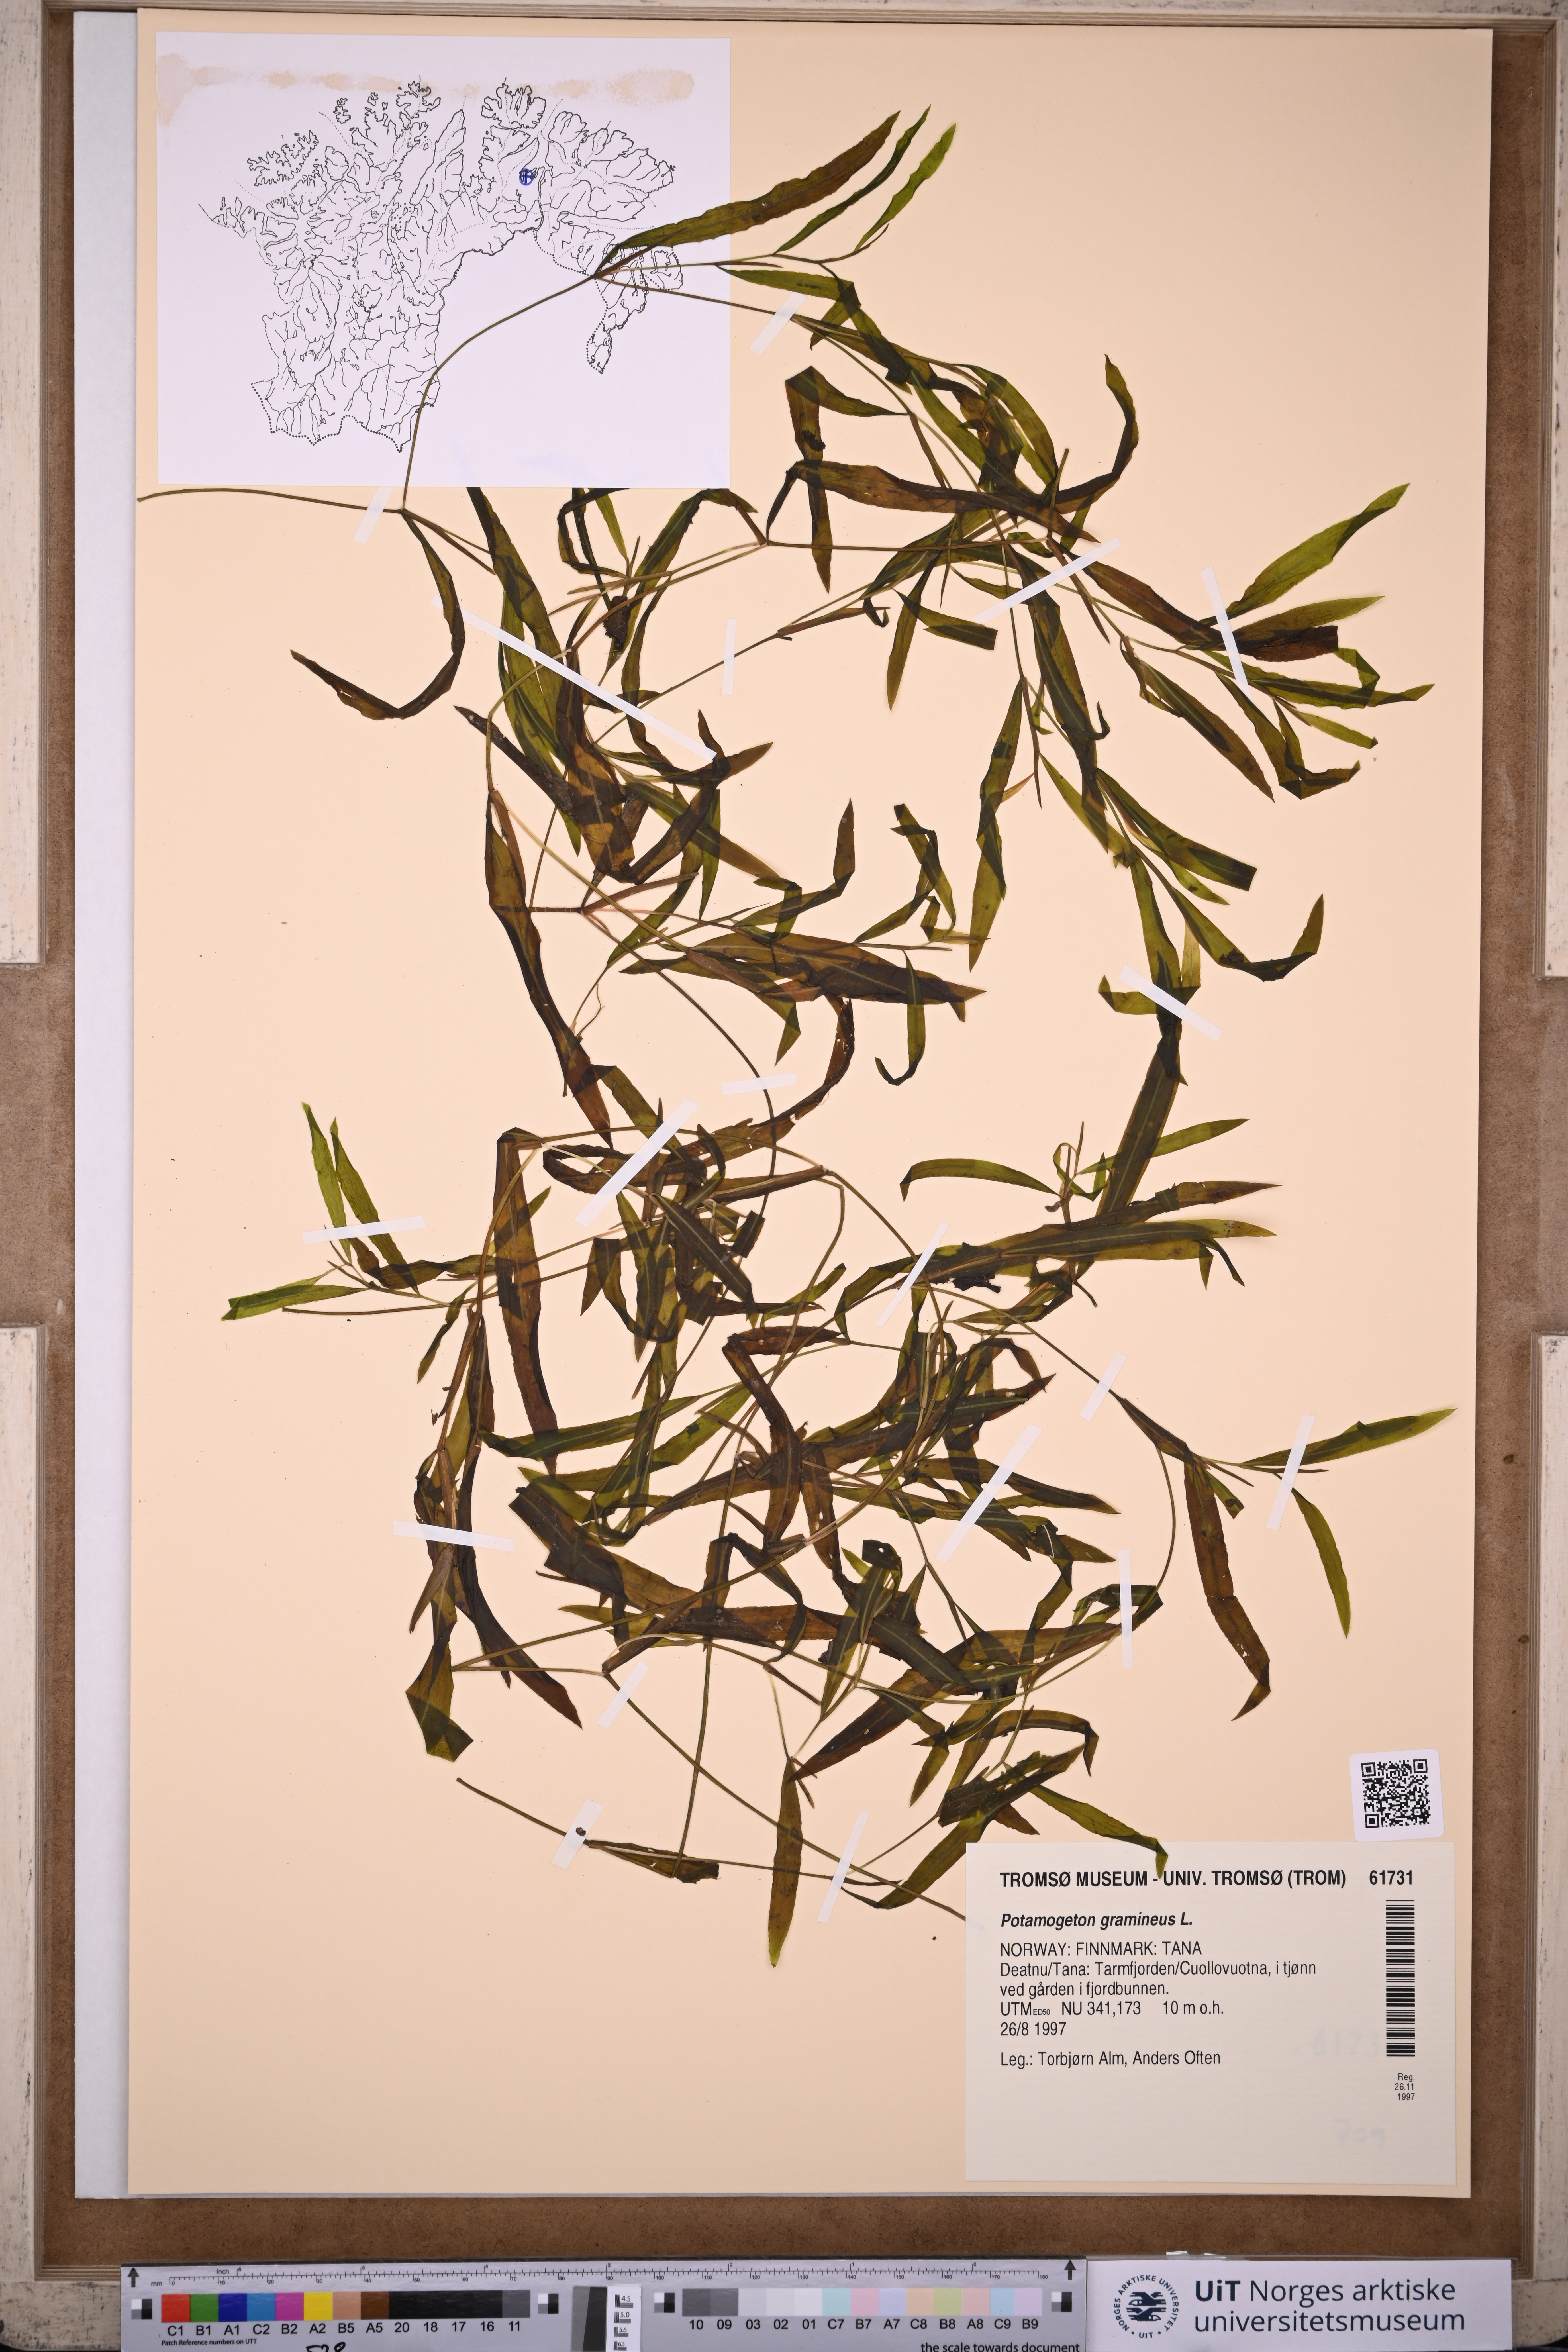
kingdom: Plantae
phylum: Tracheophyta
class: Liliopsida
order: Alismatales
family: Potamogetonaceae
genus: Potamogeton
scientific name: Potamogeton gramineus
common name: Various-leaved pondweed
